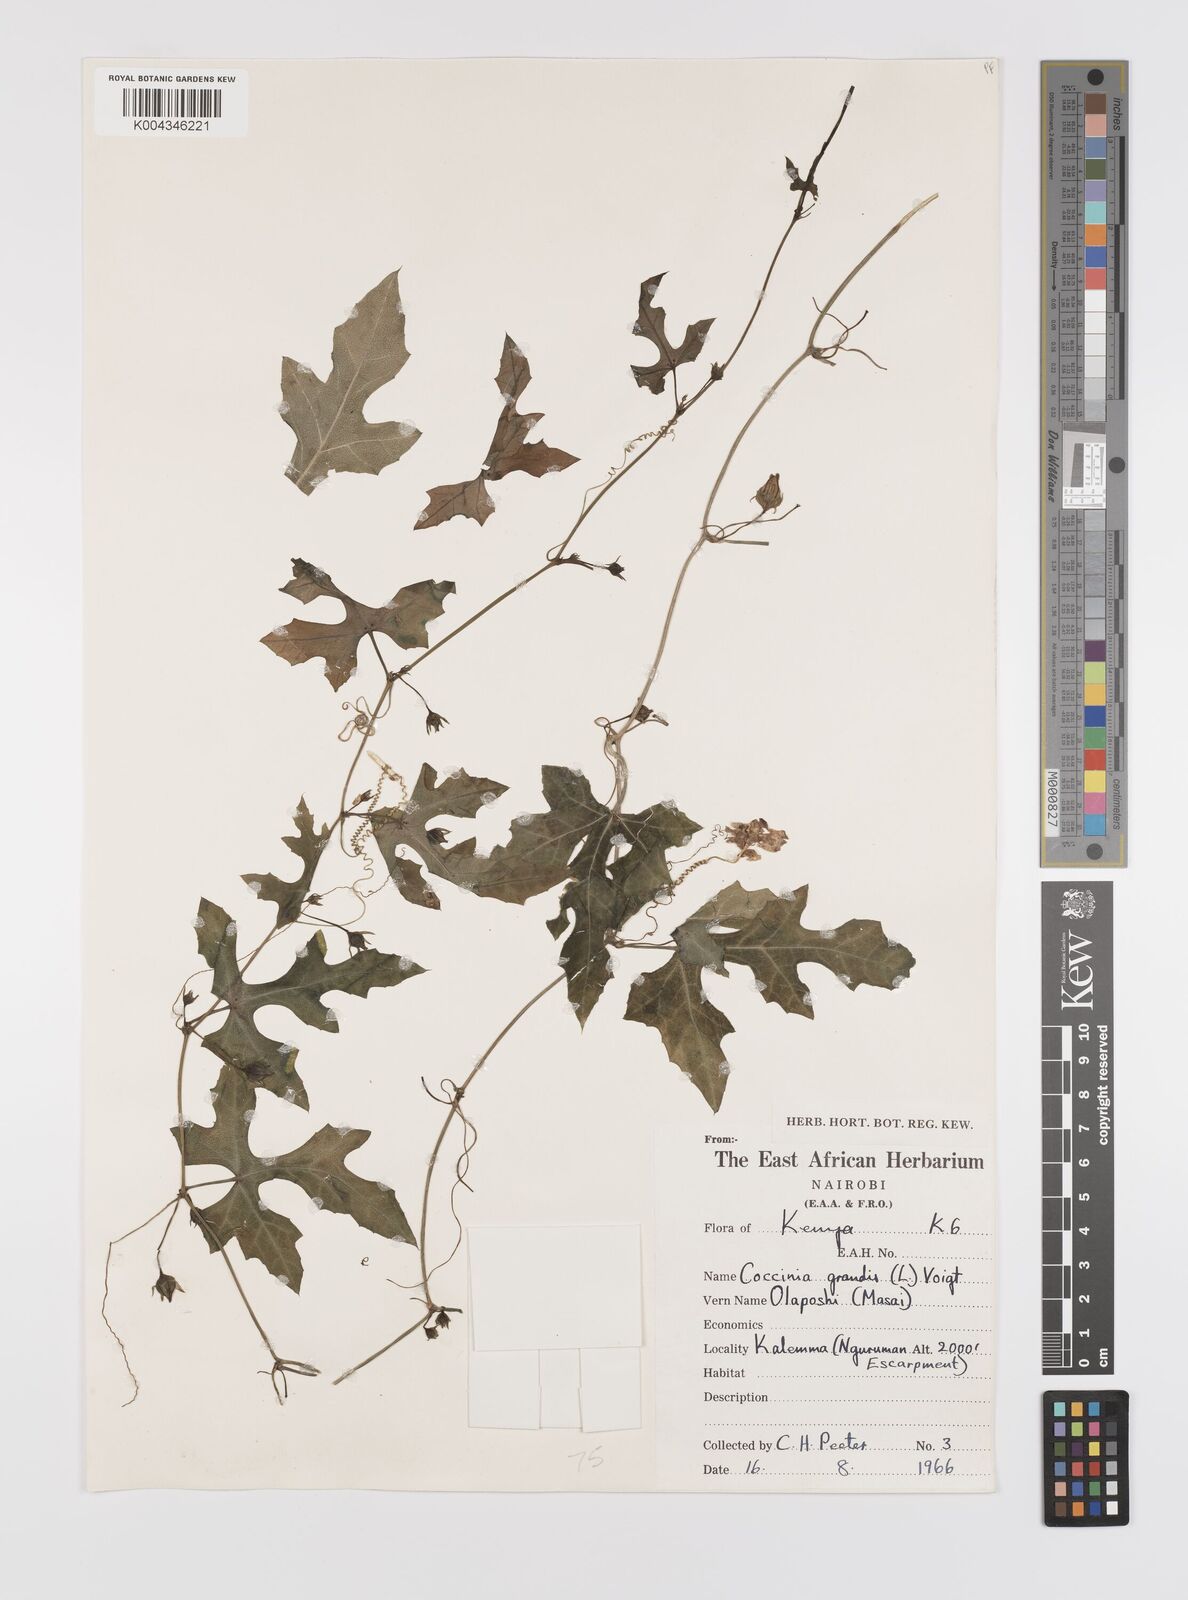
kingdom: Plantae
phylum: Tracheophyta
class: Magnoliopsida
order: Cucurbitales
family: Cucurbitaceae
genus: Coccinia
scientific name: Coccinia grandis
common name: Ivy gourd
